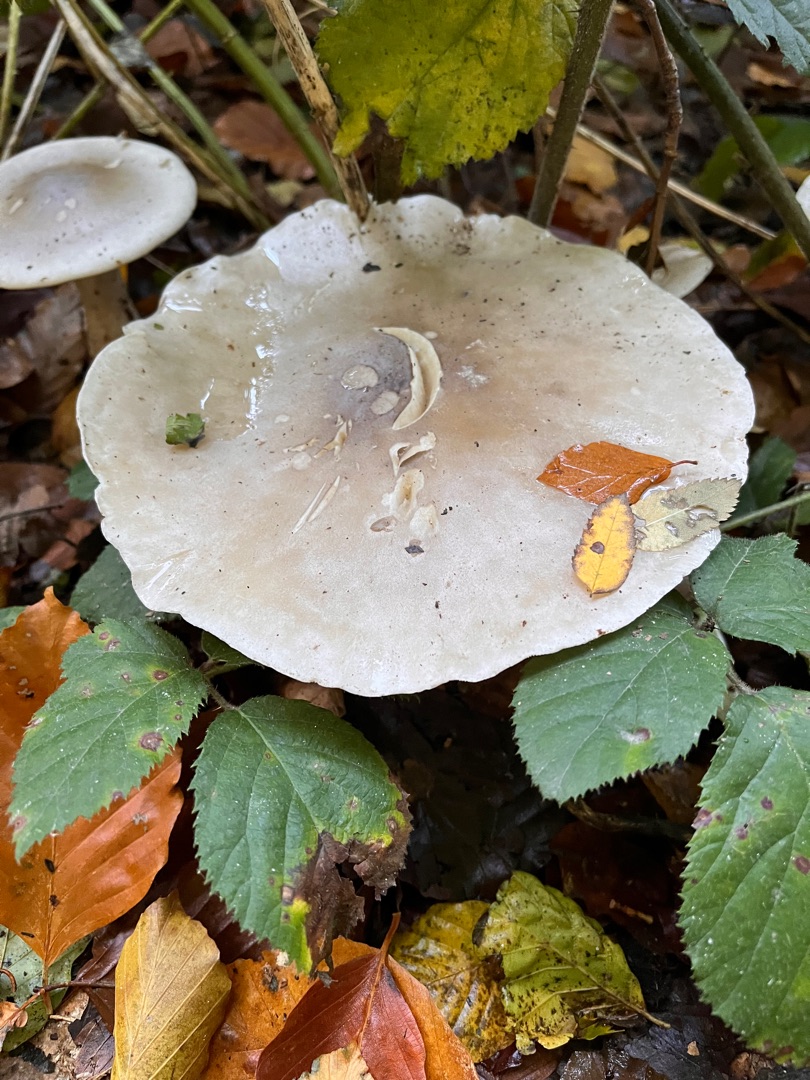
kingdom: Fungi
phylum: Basidiomycota
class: Agaricomycetes
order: Agaricales
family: Tricholomataceae
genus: Clitocybe
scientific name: Clitocybe nebularis
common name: Tåge-tragthat
